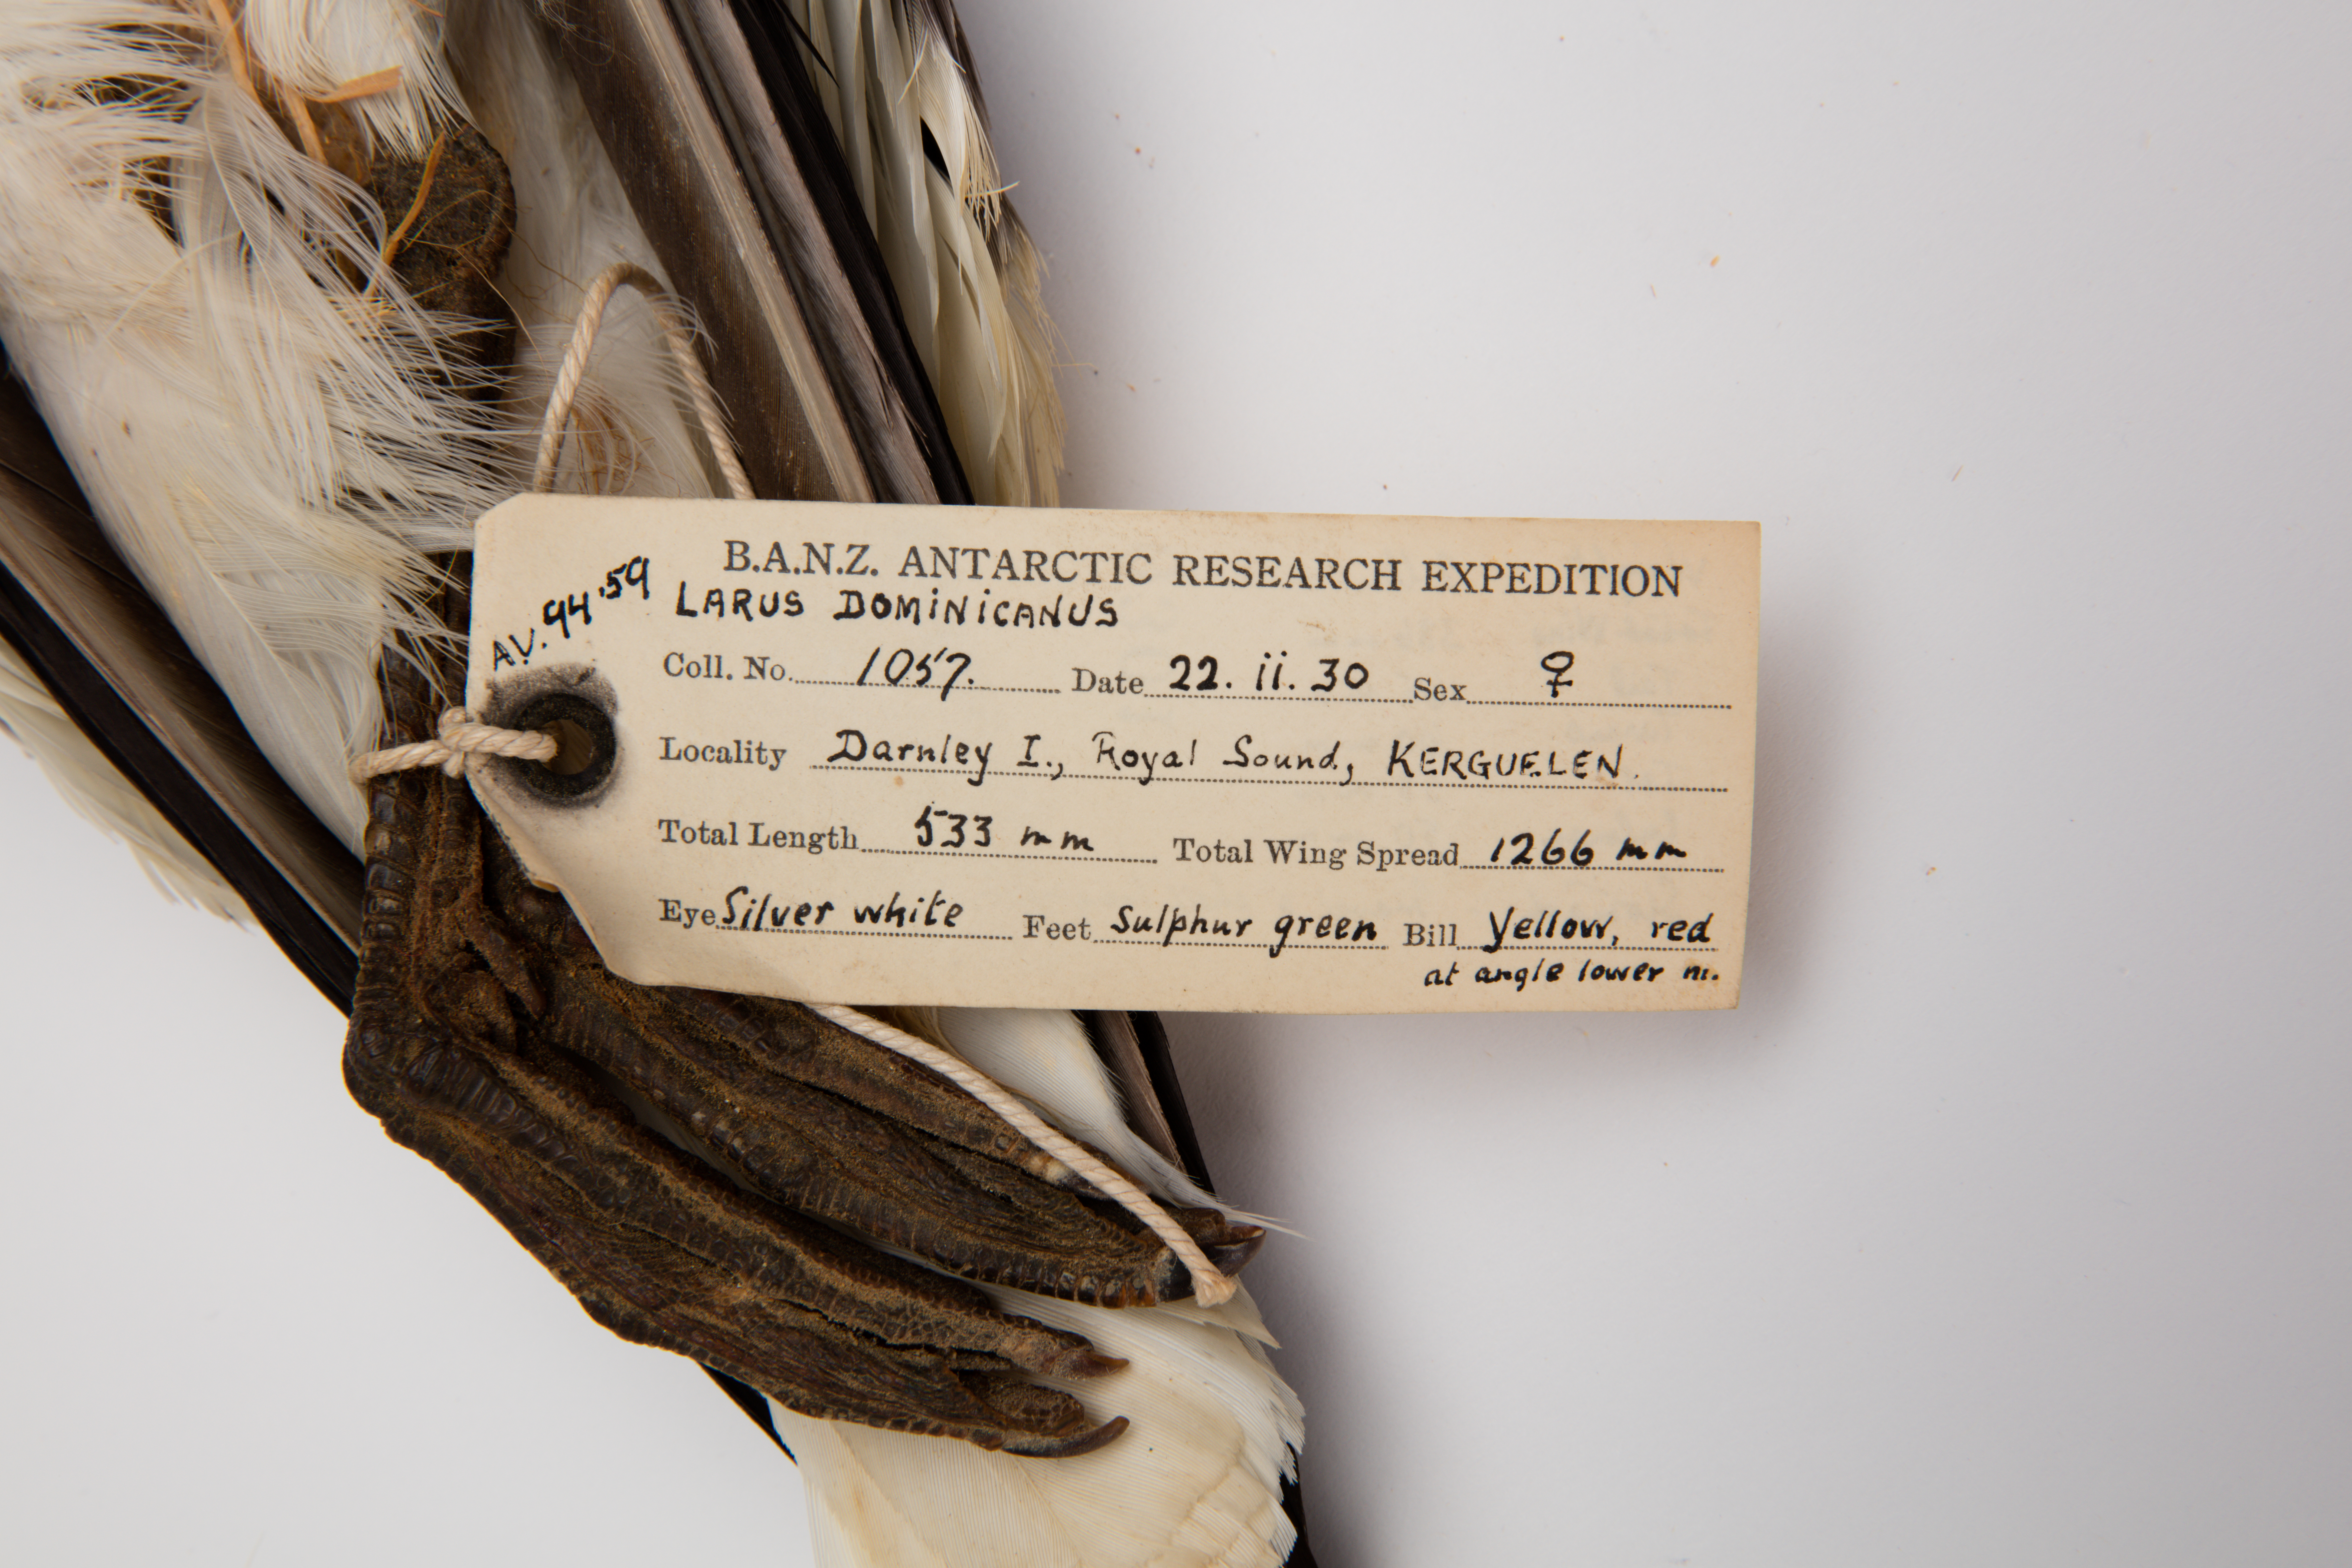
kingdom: Animalia
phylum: Chordata
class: Aves
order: Charadriiformes
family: Laridae
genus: Larus
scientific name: Larus dominicanus
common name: Kelp gull
